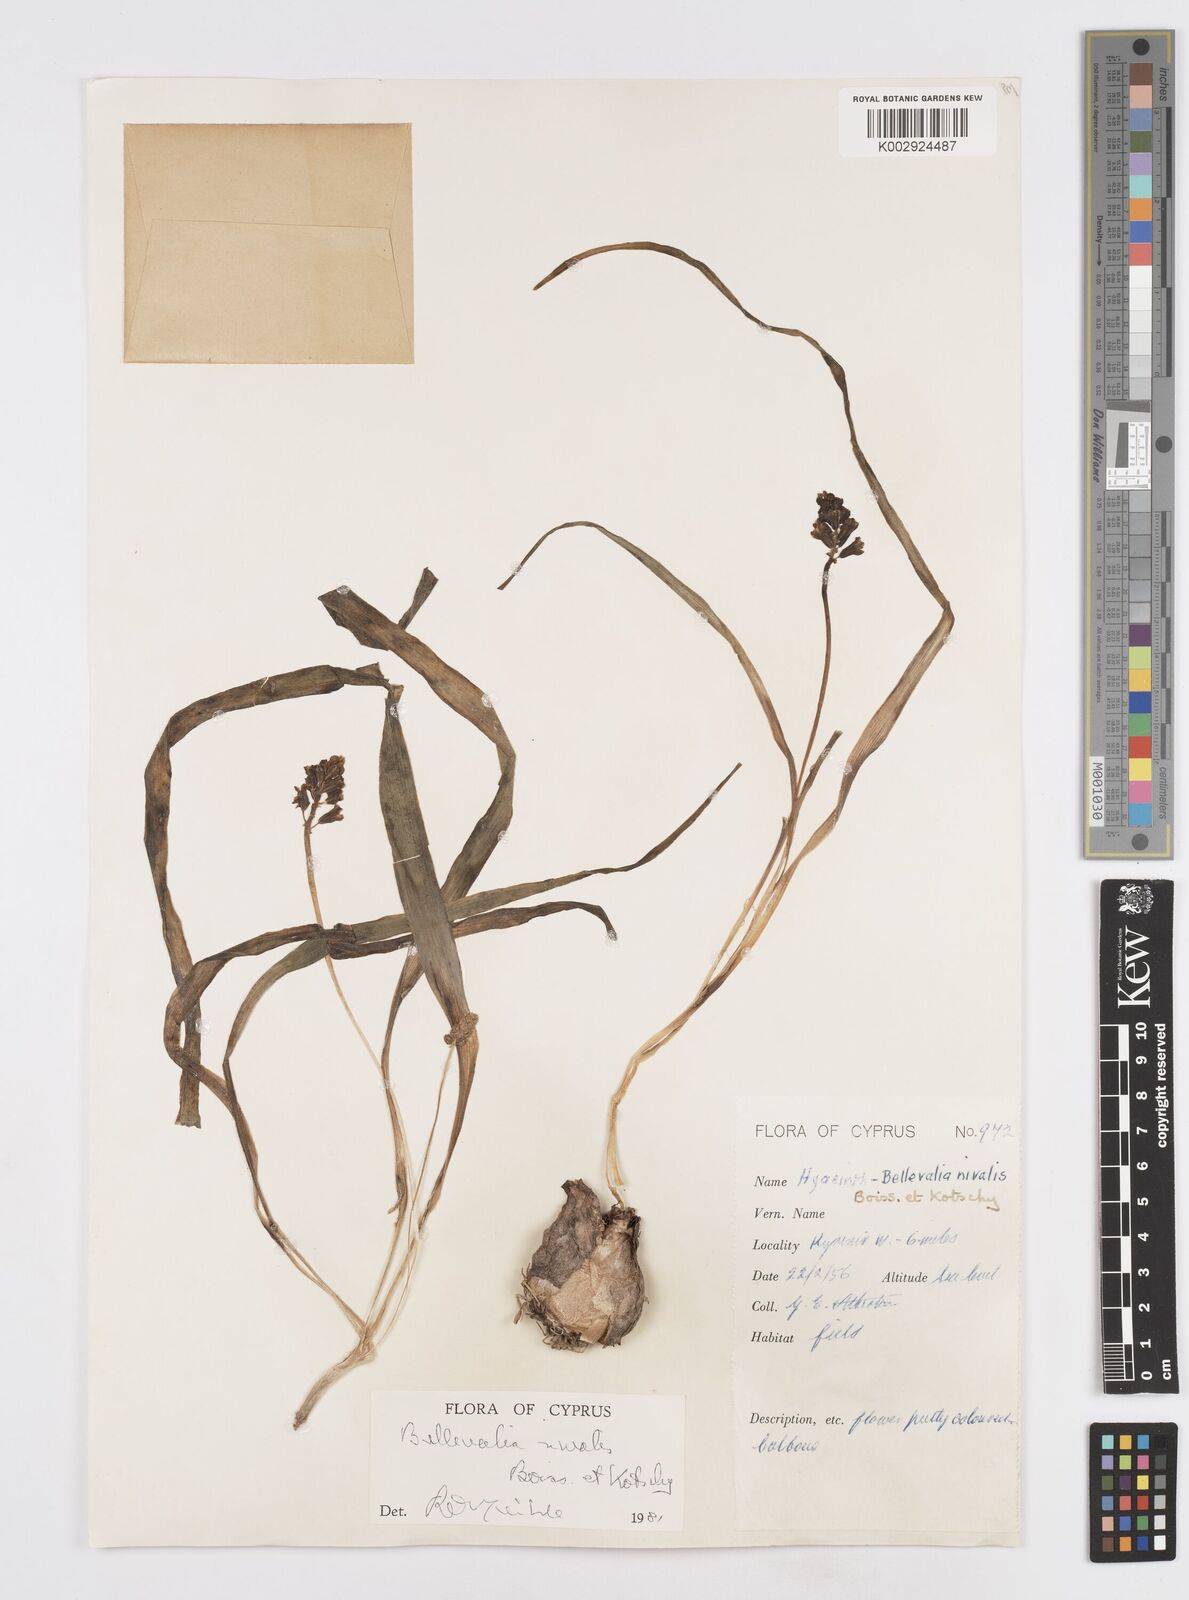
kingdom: Plantae
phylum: Tracheophyta
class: Liliopsida
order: Asparagales
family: Asparagaceae
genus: Bellevalia
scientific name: Bellevalia nivalis
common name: Snow bellevalia
